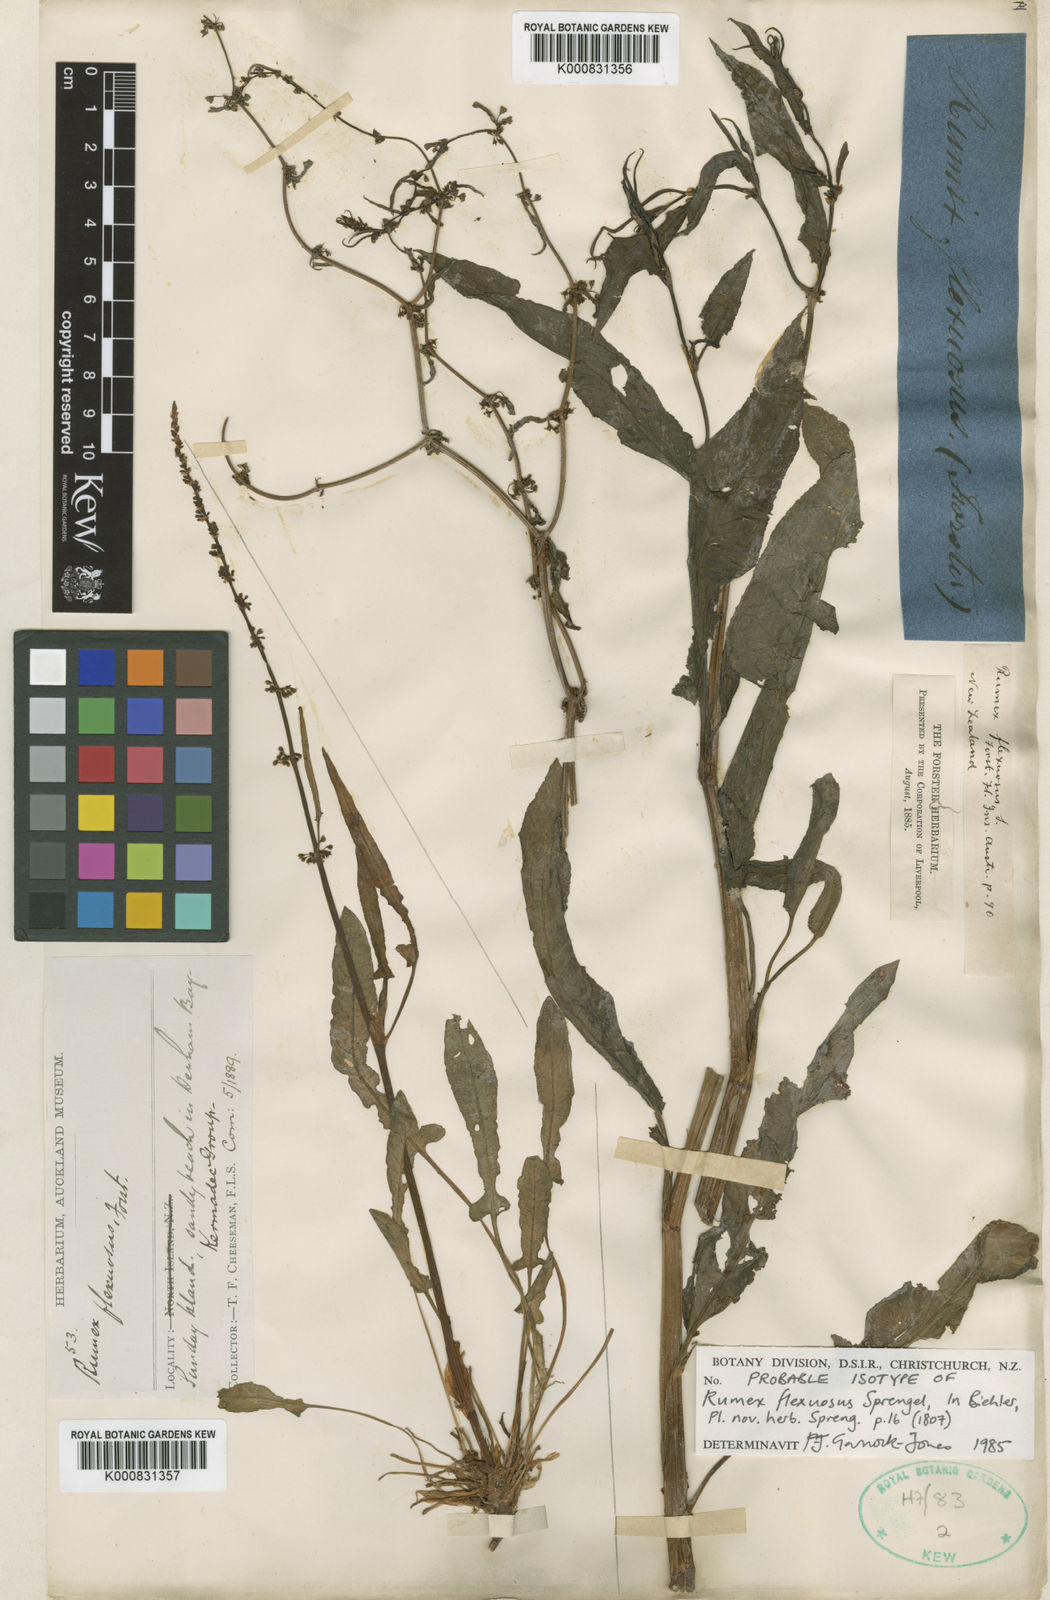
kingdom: Plantae
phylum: Tracheophyta
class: Magnoliopsida
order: Caryophyllales
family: Polygonaceae
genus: Rumex
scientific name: Rumex flexuosus
